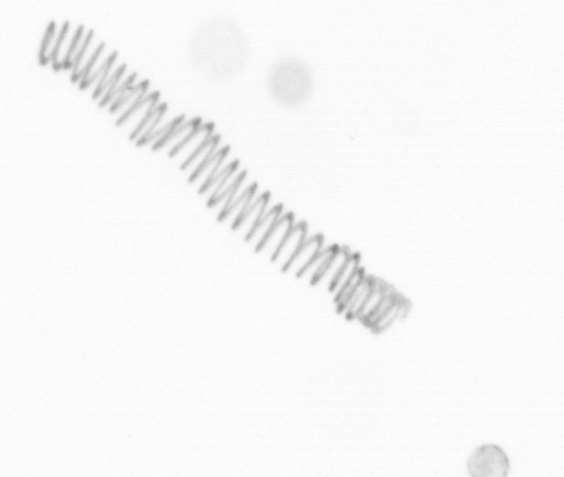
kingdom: Chromista
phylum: Ochrophyta
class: Bacillariophyceae
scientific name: Bacillariophyceae
